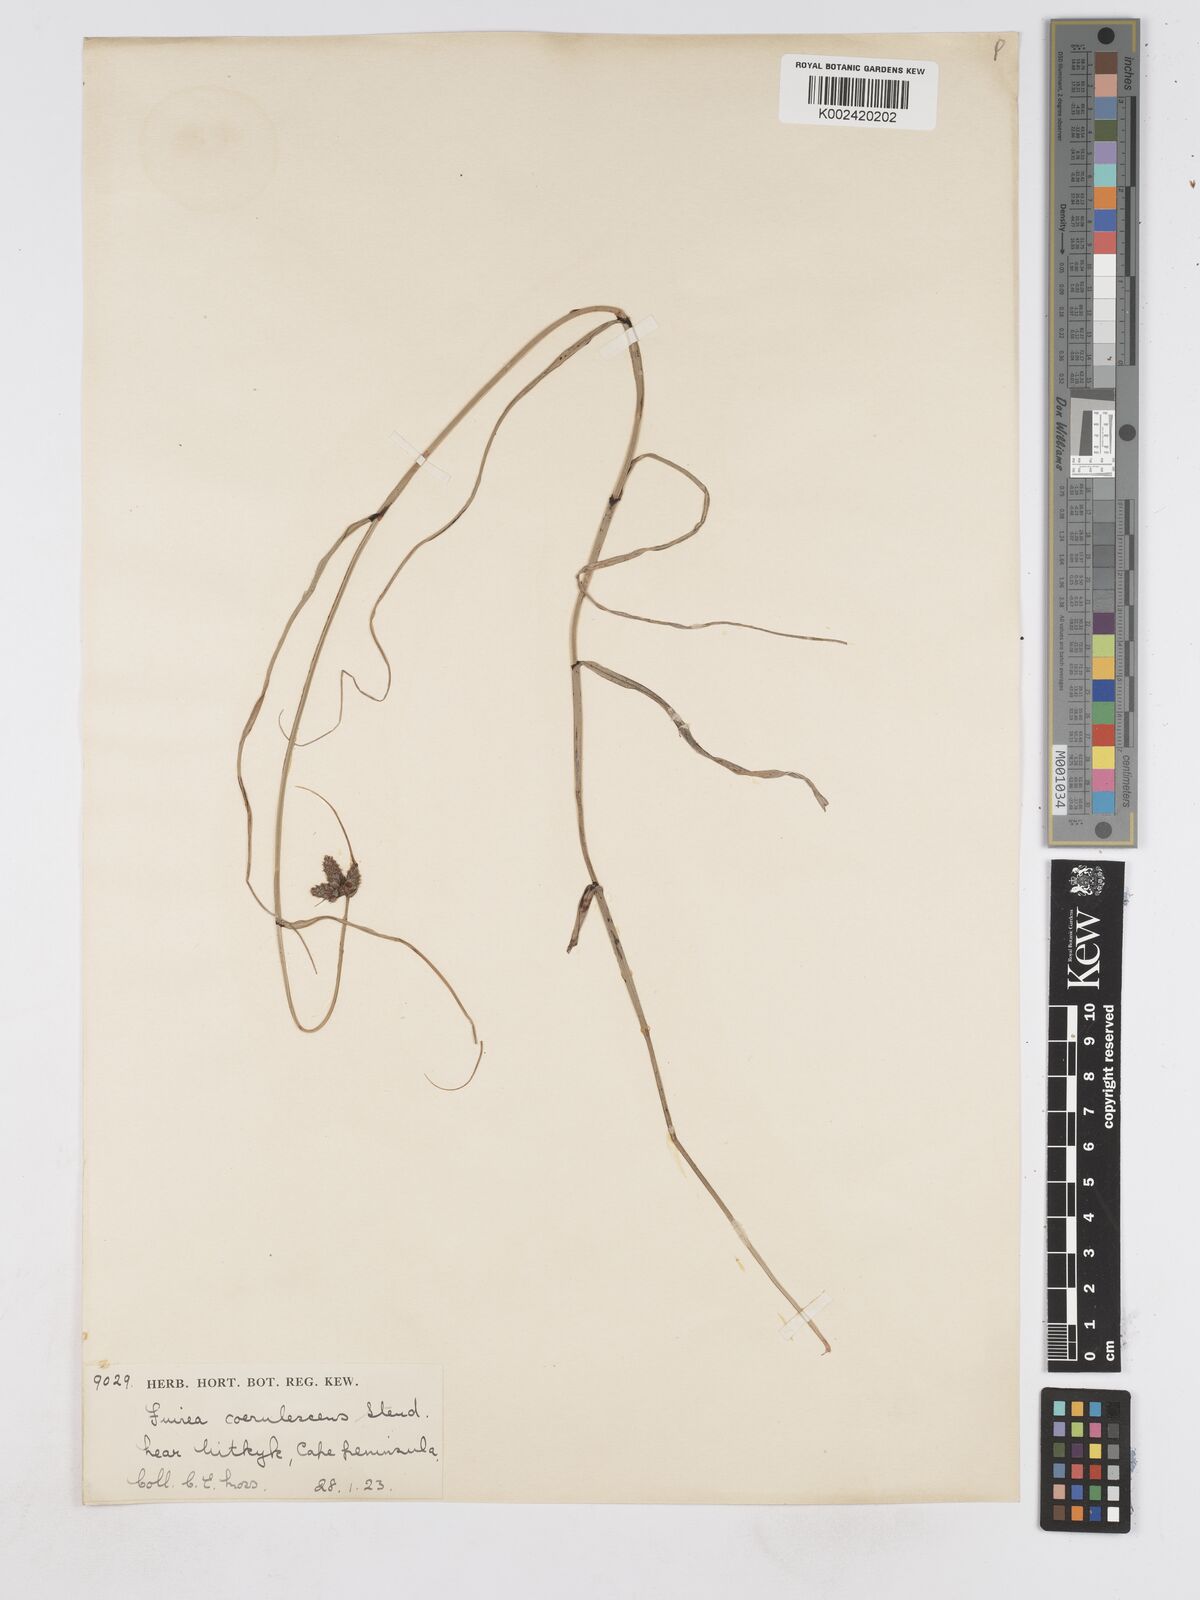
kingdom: Plantae
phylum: Tracheophyta
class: Liliopsida
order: Poales
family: Cyperaceae
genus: Fuirena
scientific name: Fuirena coerulescens
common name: Blue umbrella-sedge
